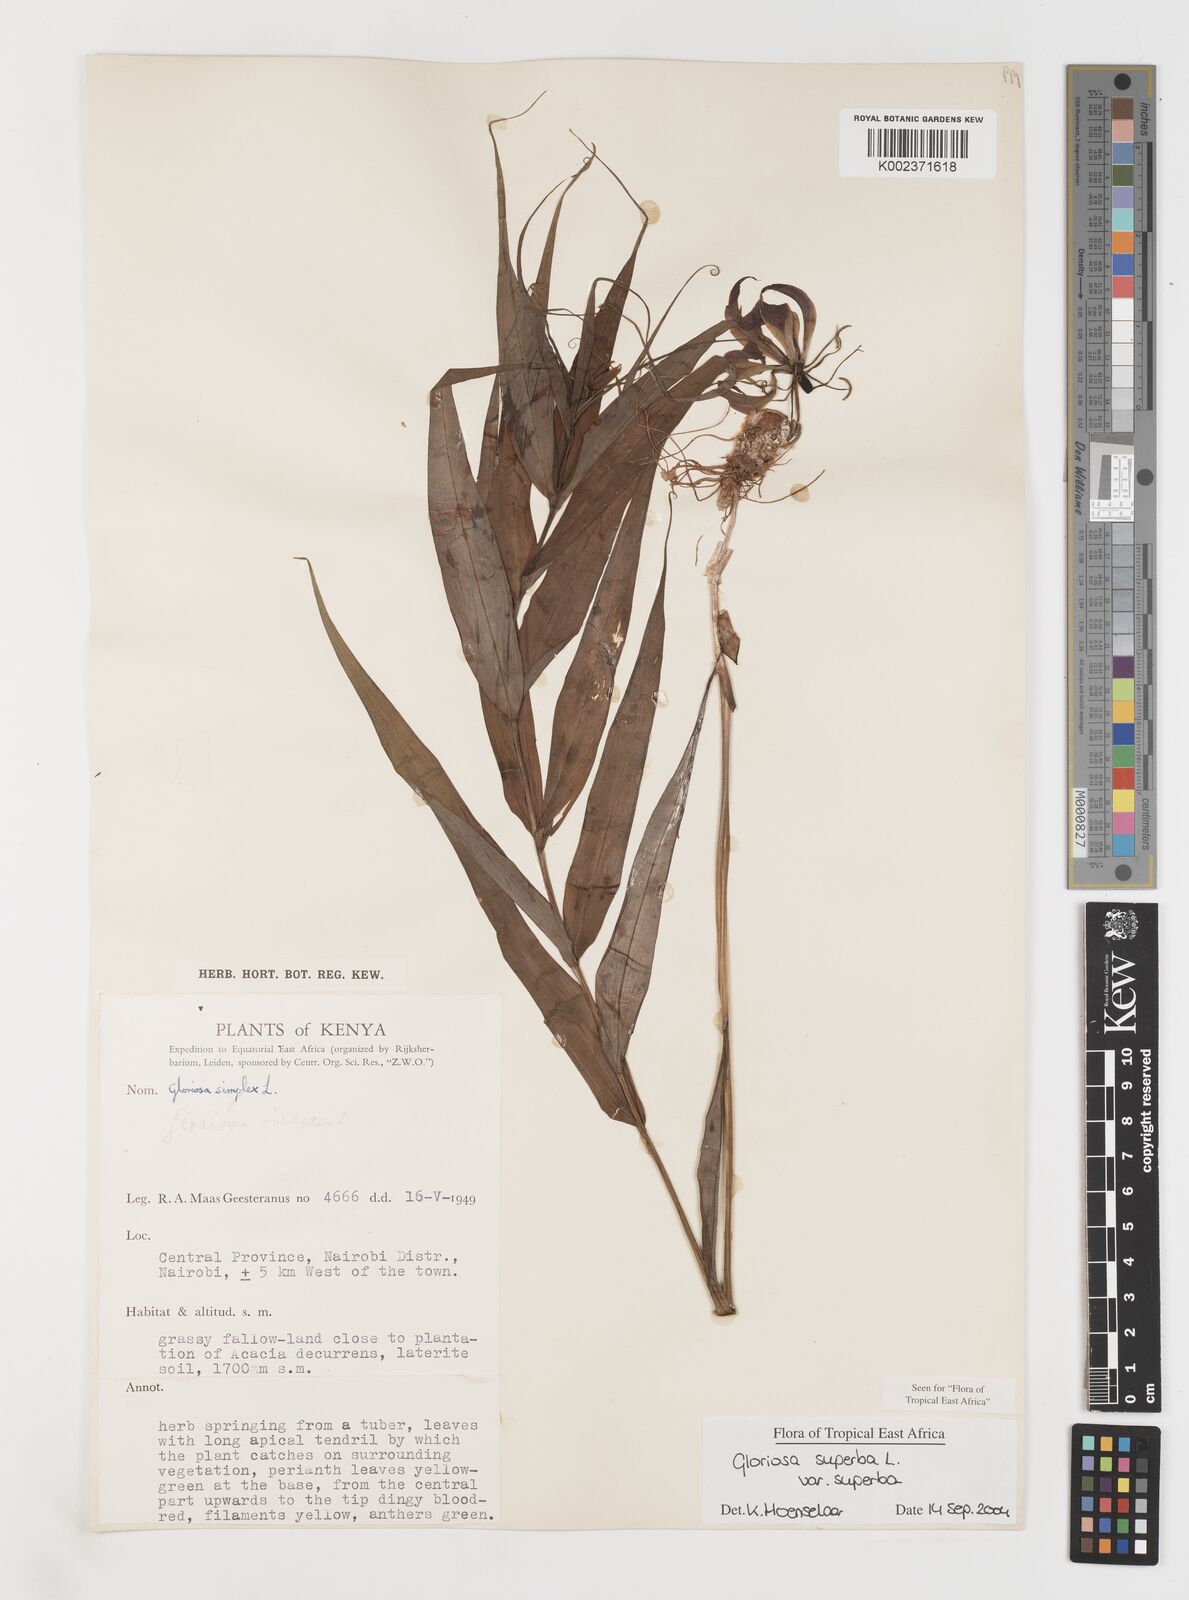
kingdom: Plantae
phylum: Tracheophyta
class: Liliopsida
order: Liliales
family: Colchicaceae
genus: Gloriosa
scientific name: Gloriosa simplex
